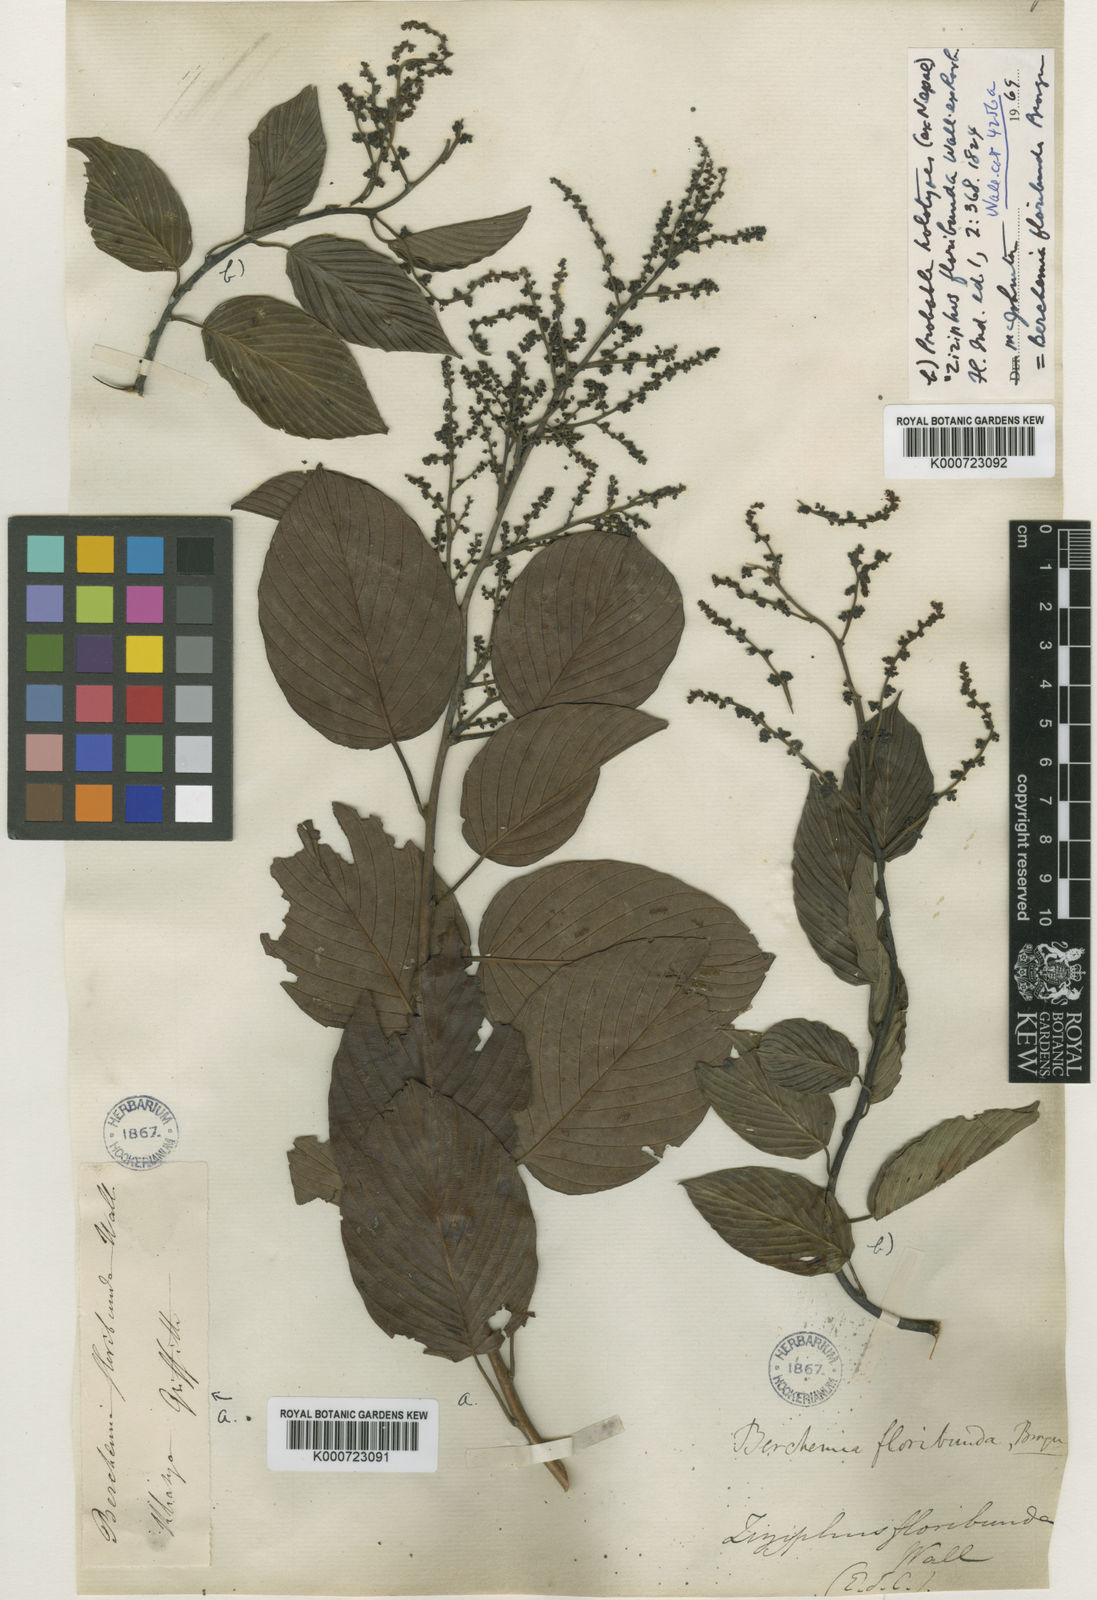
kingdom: Plantae
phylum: Tracheophyta
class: Magnoliopsida
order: Rosales
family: Rhamnaceae
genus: Berchemia
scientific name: Berchemia floribunda
